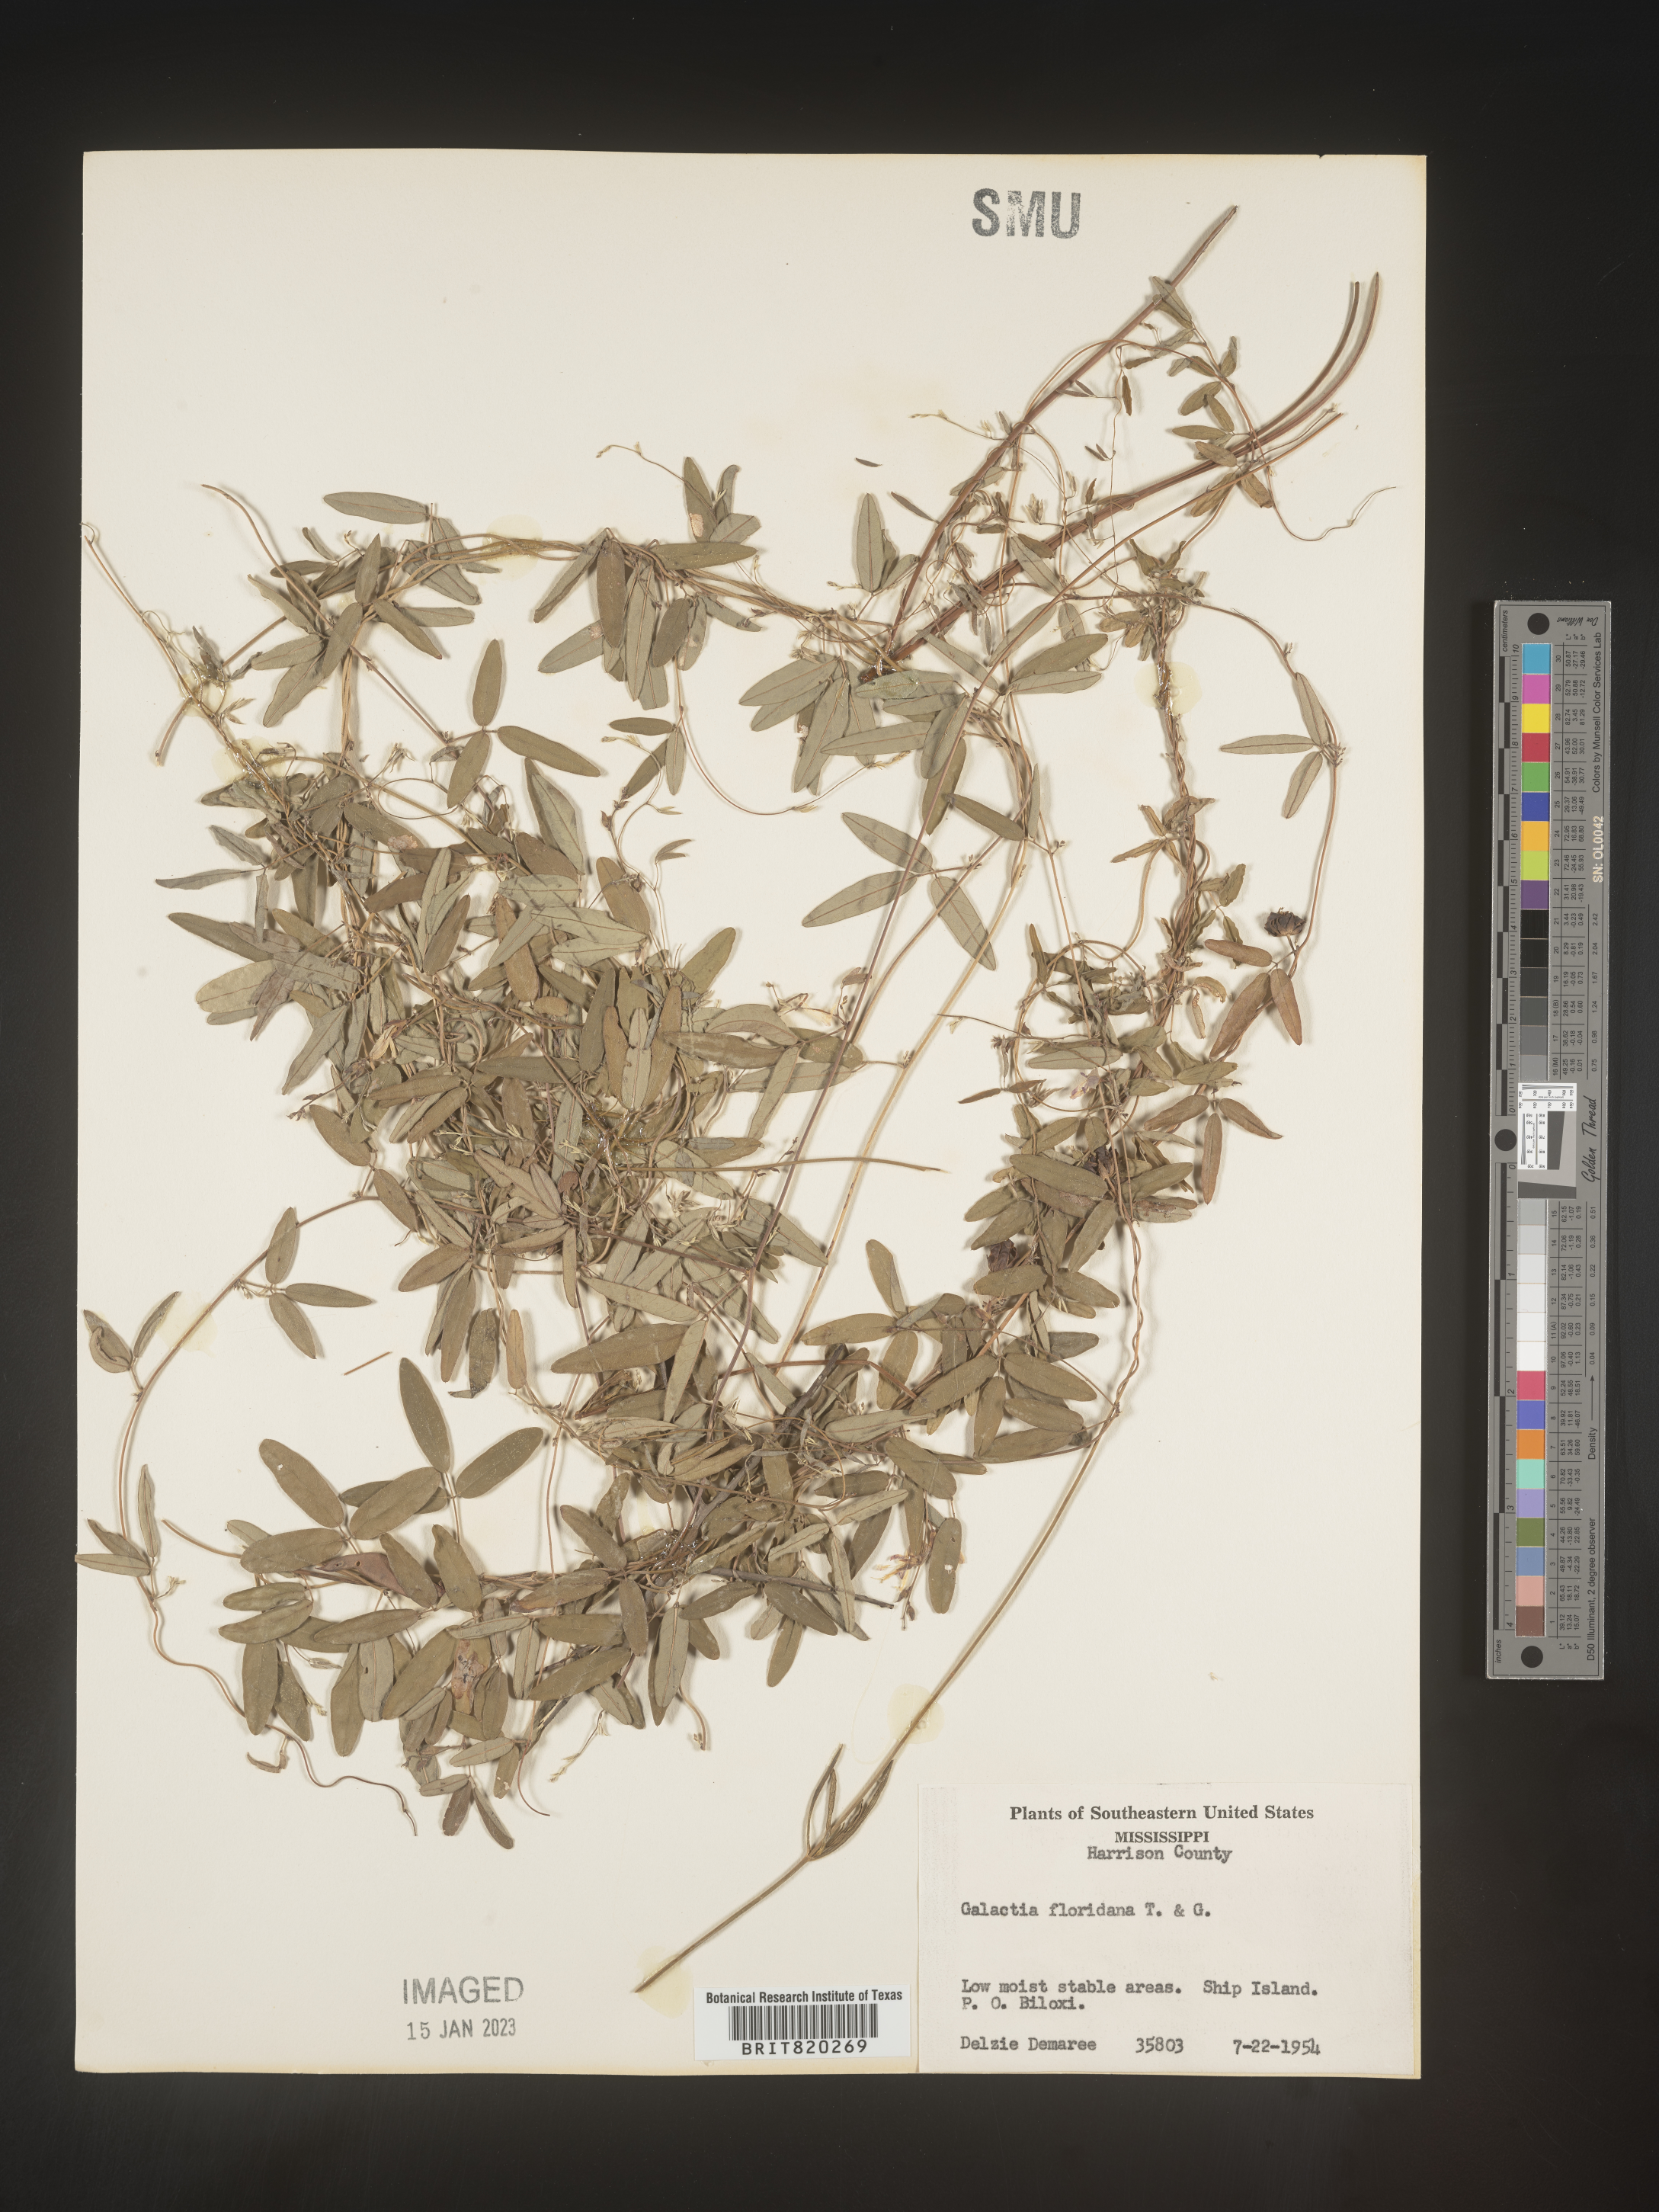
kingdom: Plantae
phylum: Tracheophyta
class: Magnoliopsida
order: Fabales
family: Fabaceae
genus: Galactia
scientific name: Galactia volubilis
